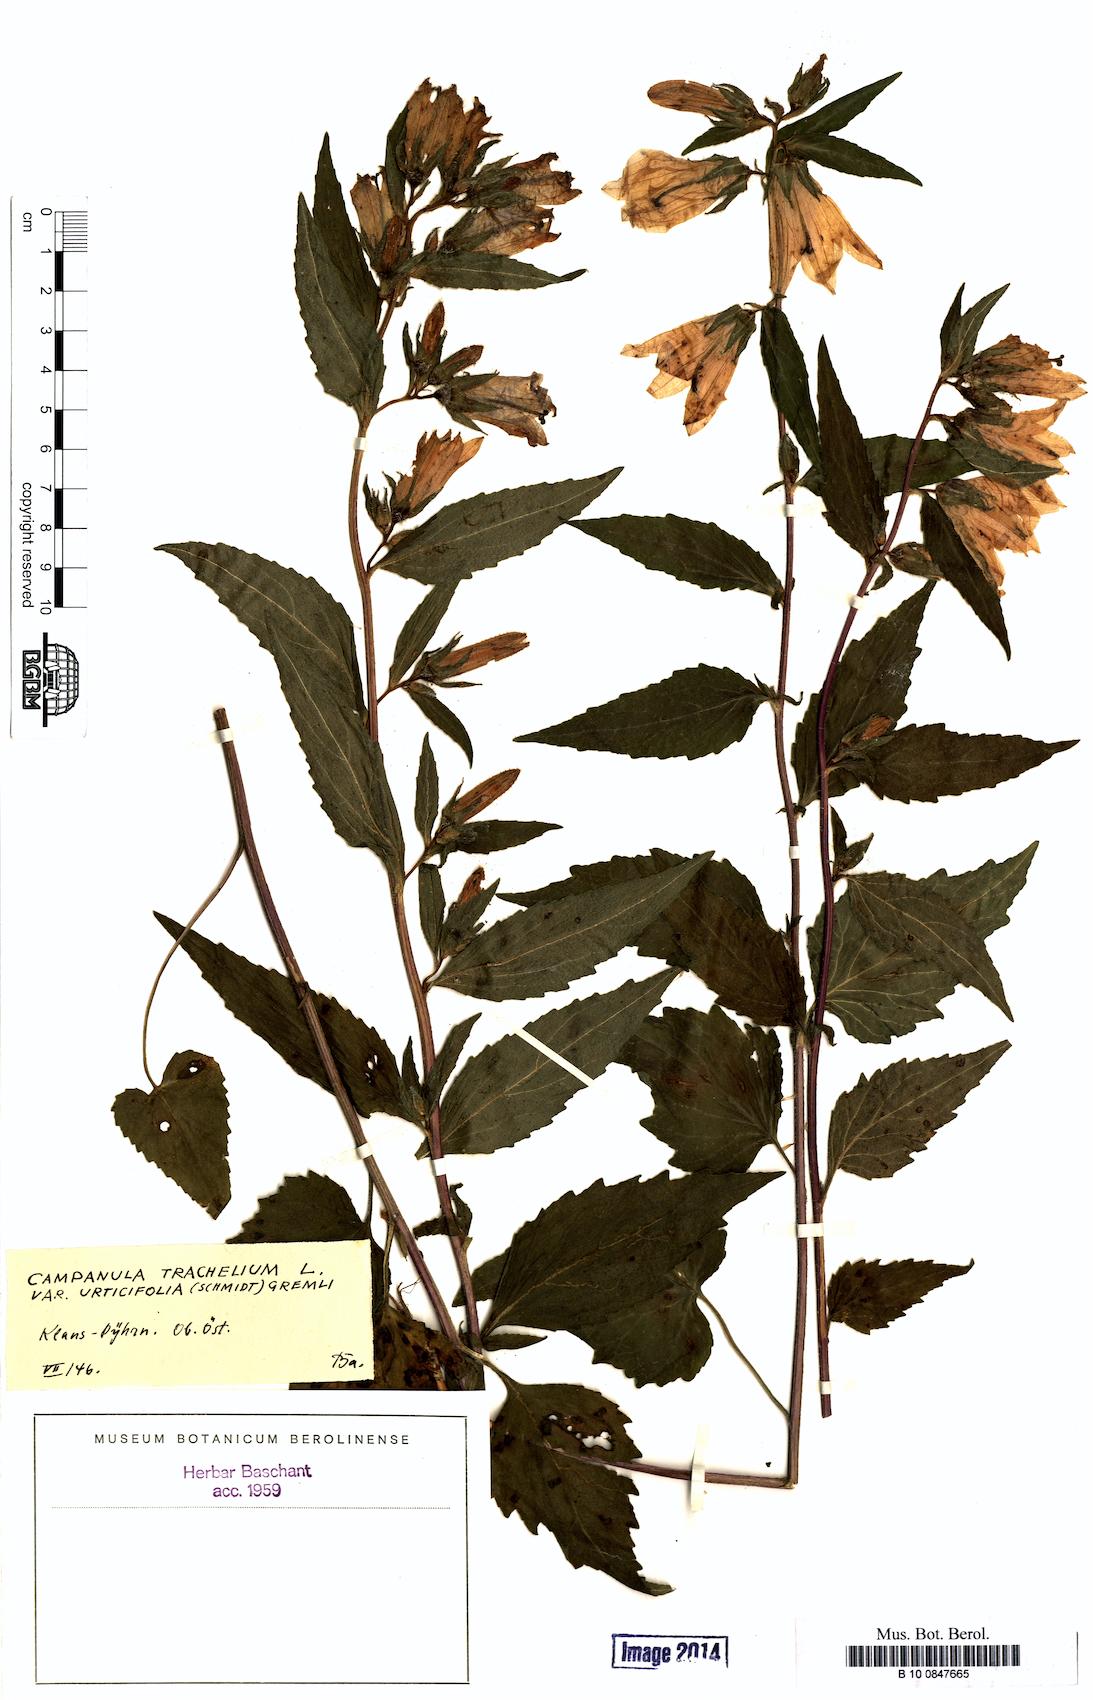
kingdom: Plantae
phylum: Tracheophyta
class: Magnoliopsida
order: Asterales
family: Campanulaceae
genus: Campanula
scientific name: Campanula trachelium
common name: Nettle-leaved bellflower
